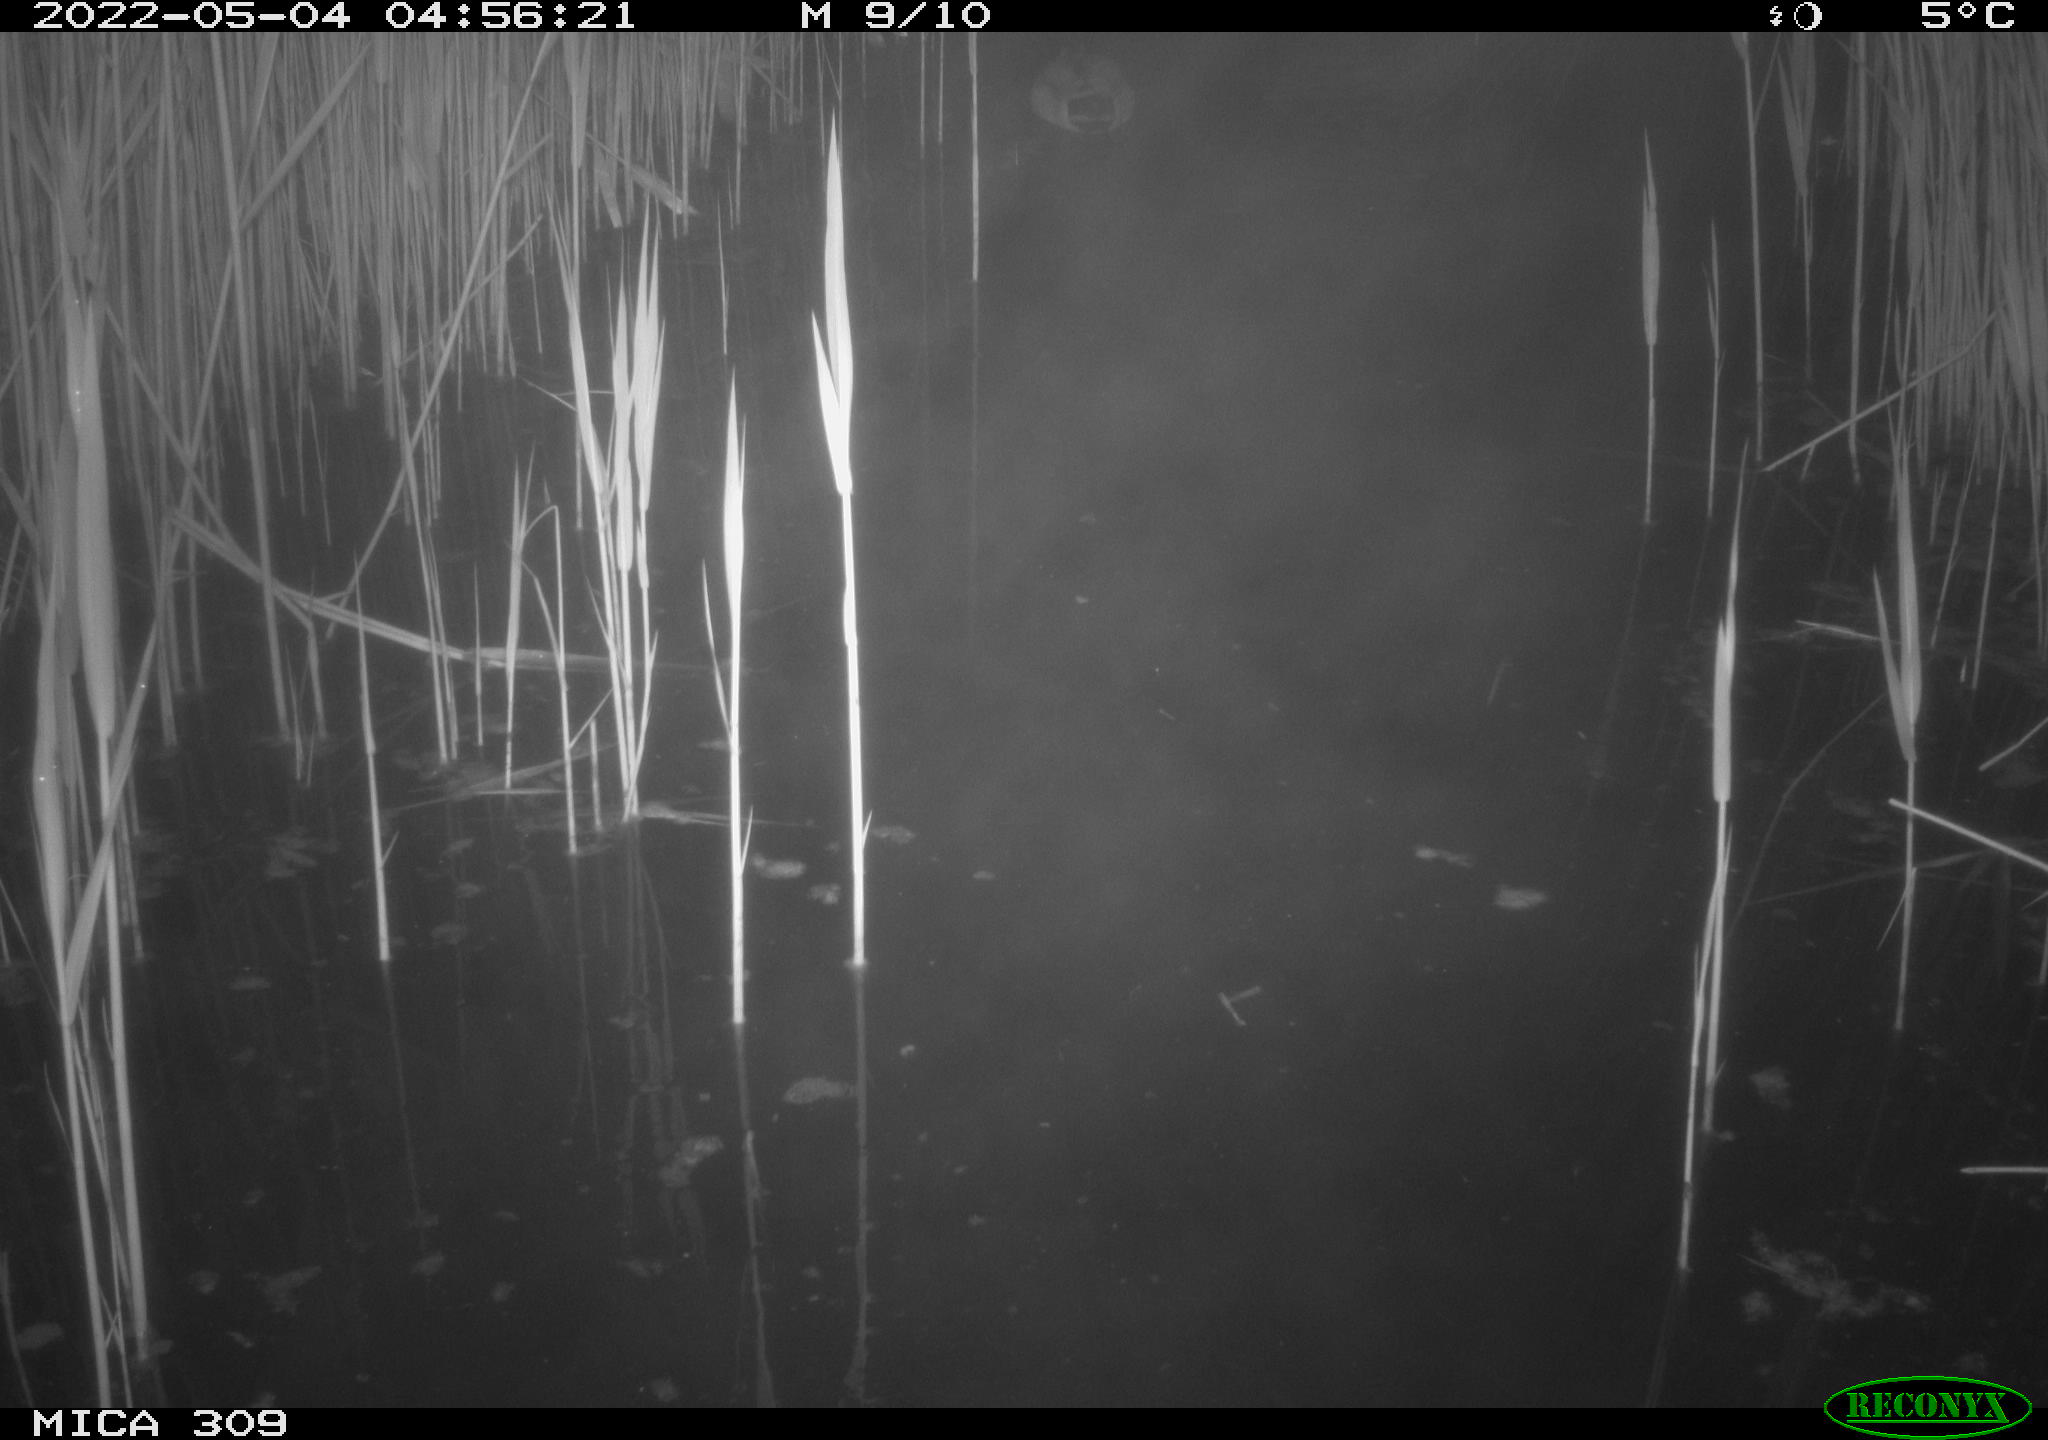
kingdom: Animalia
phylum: Chordata
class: Aves
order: Anseriformes
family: Anatidae
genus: Anas
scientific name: Anas platyrhynchos
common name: Mallard
